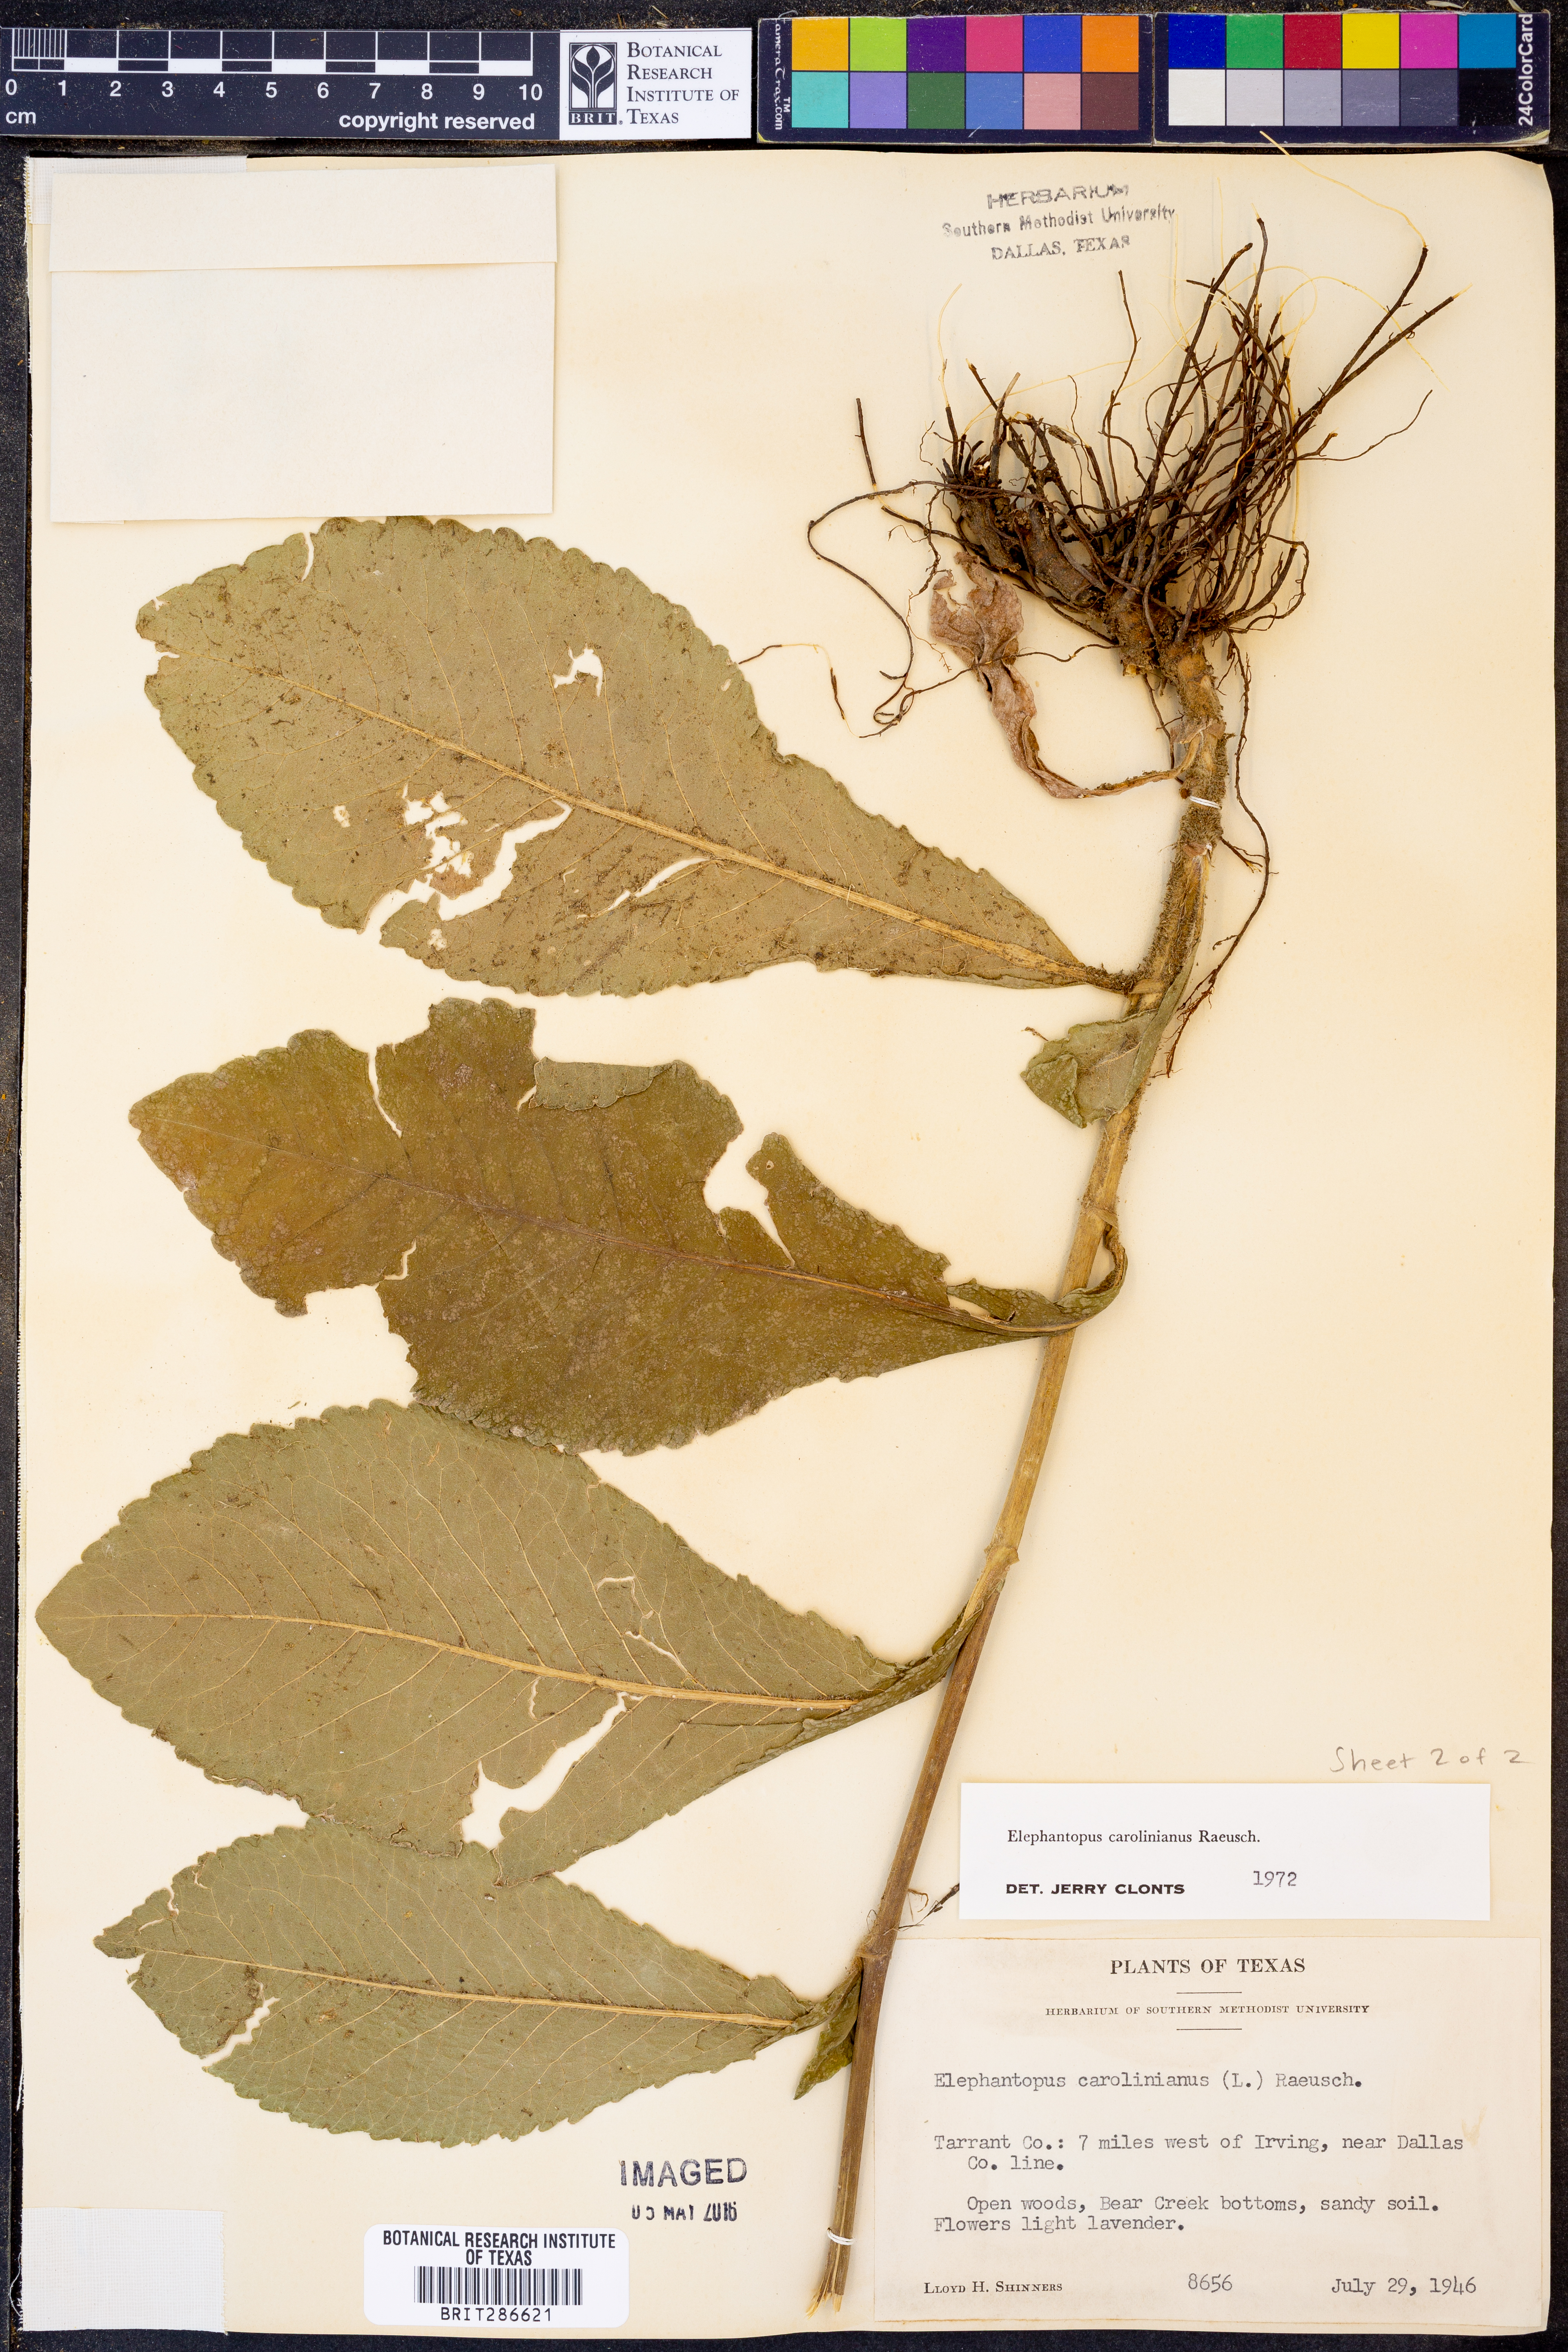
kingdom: Plantae
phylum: Tracheophyta
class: Magnoliopsida
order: Asterales
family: Asteraceae
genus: Elephantopus
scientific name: Elephantopus carolinianus
